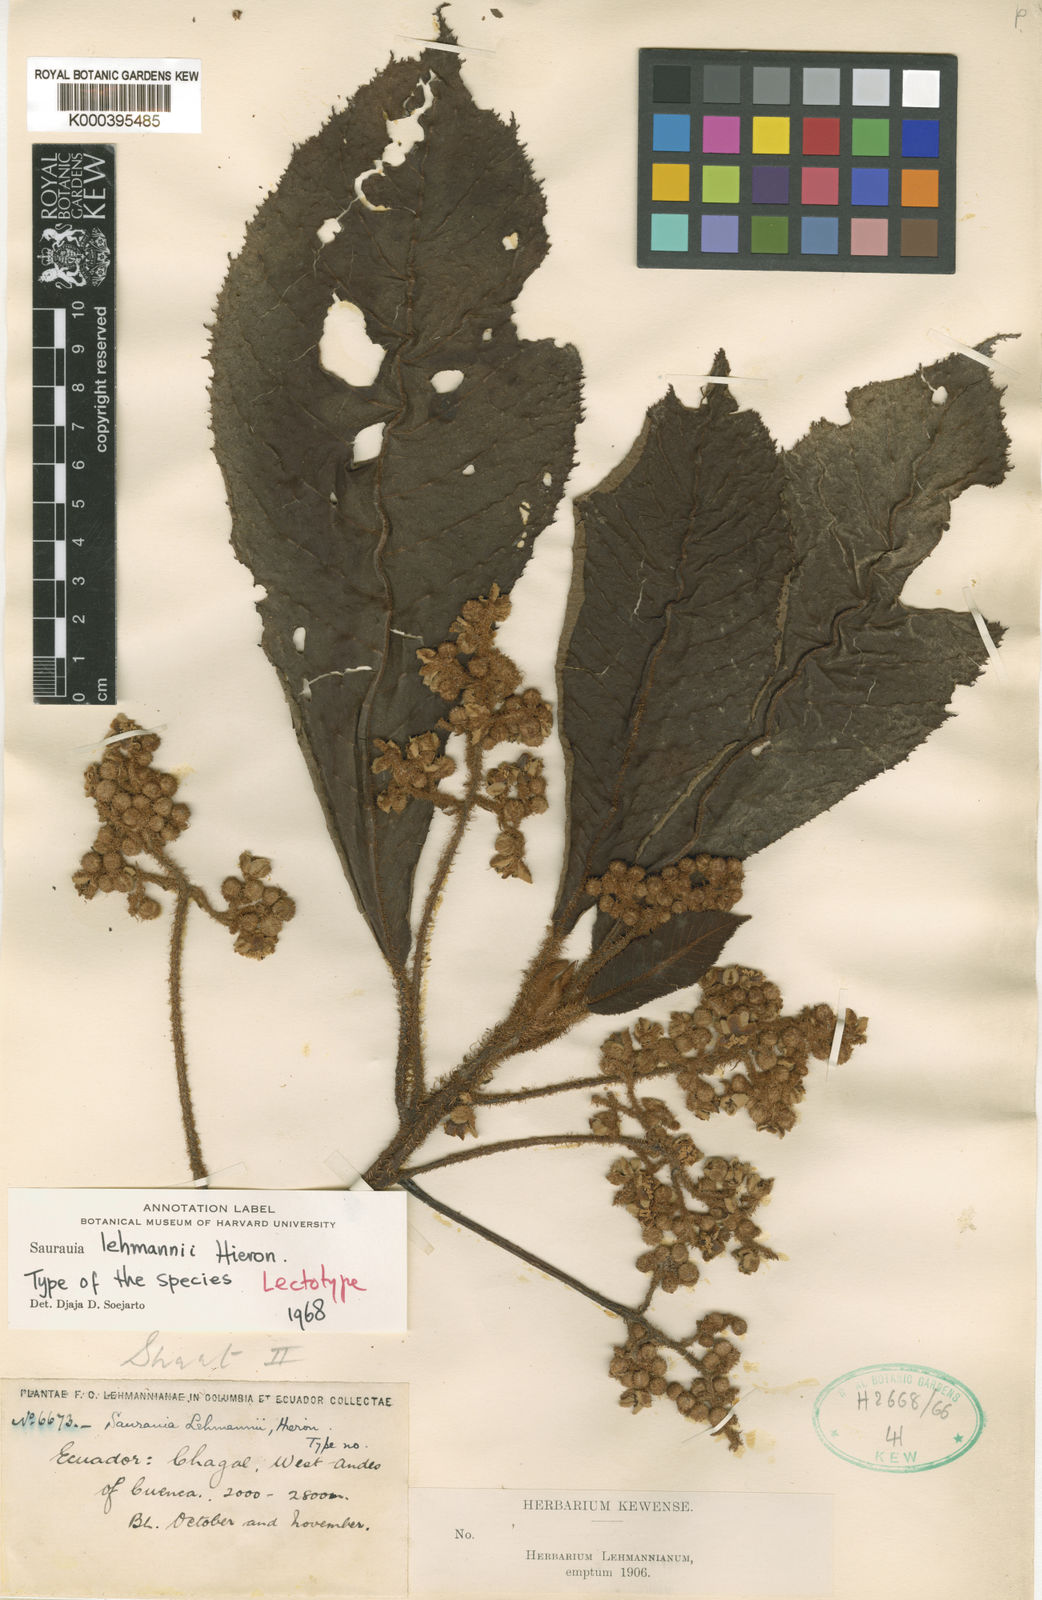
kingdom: Plantae
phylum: Tracheophyta
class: Magnoliopsida
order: Ericales
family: Actinidiaceae
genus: Saurauia
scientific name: Saurauia lehmannii
